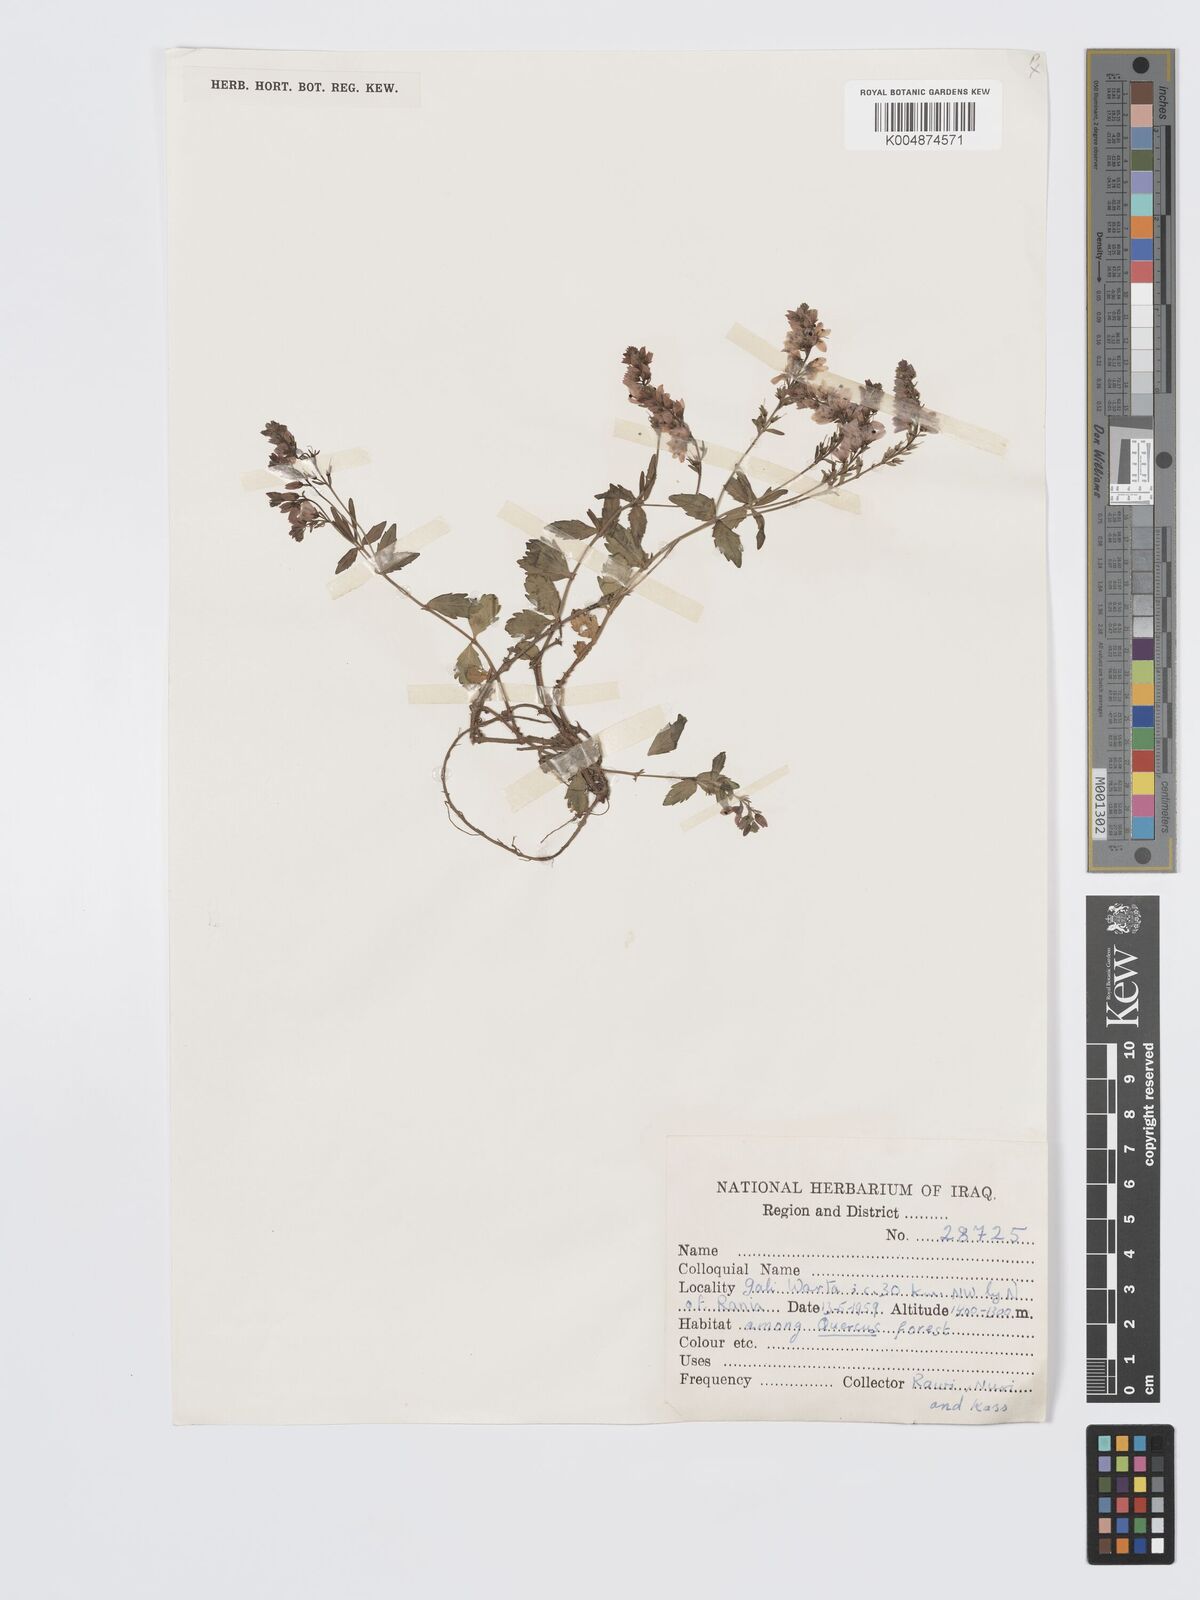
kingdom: Plantae
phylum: Tracheophyta
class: Magnoliopsida
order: Lamiales
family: Plantaginaceae
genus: Veronica
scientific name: Veronica
